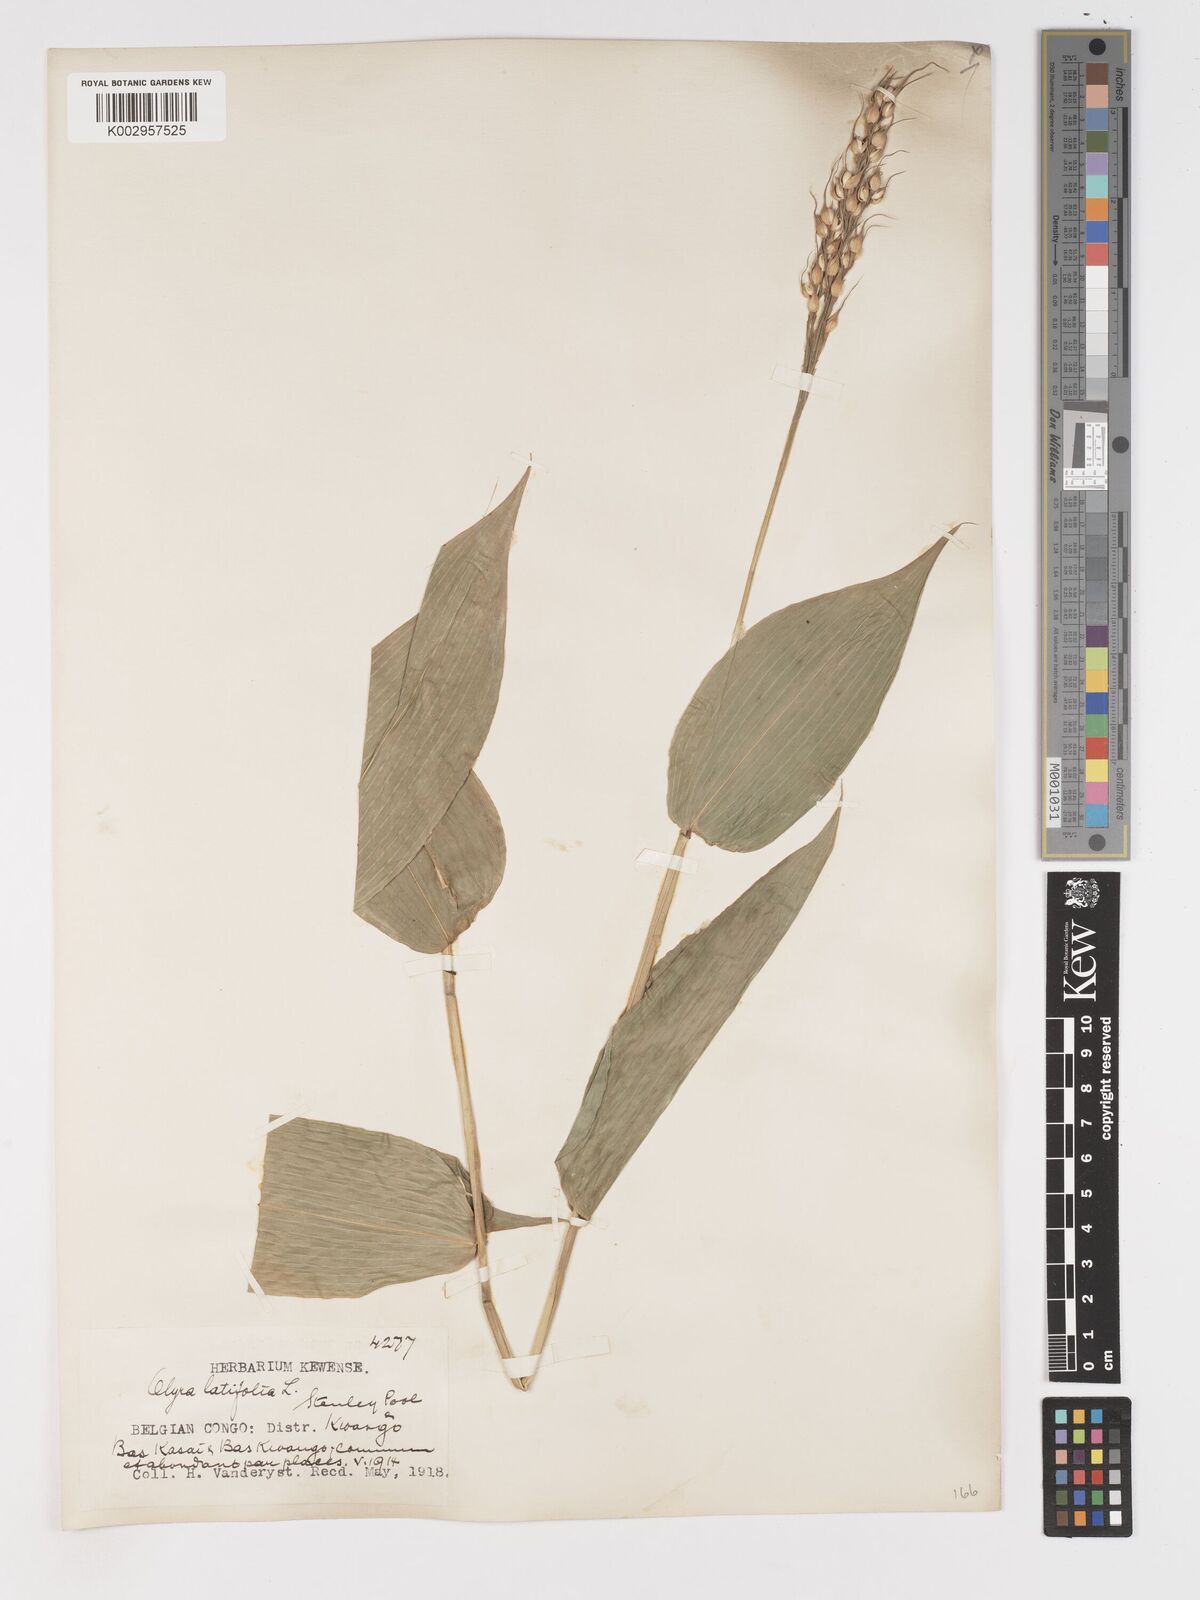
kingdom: Plantae
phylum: Tracheophyta
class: Liliopsida
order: Poales
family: Poaceae
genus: Olyra
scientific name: Olyra latifolia
